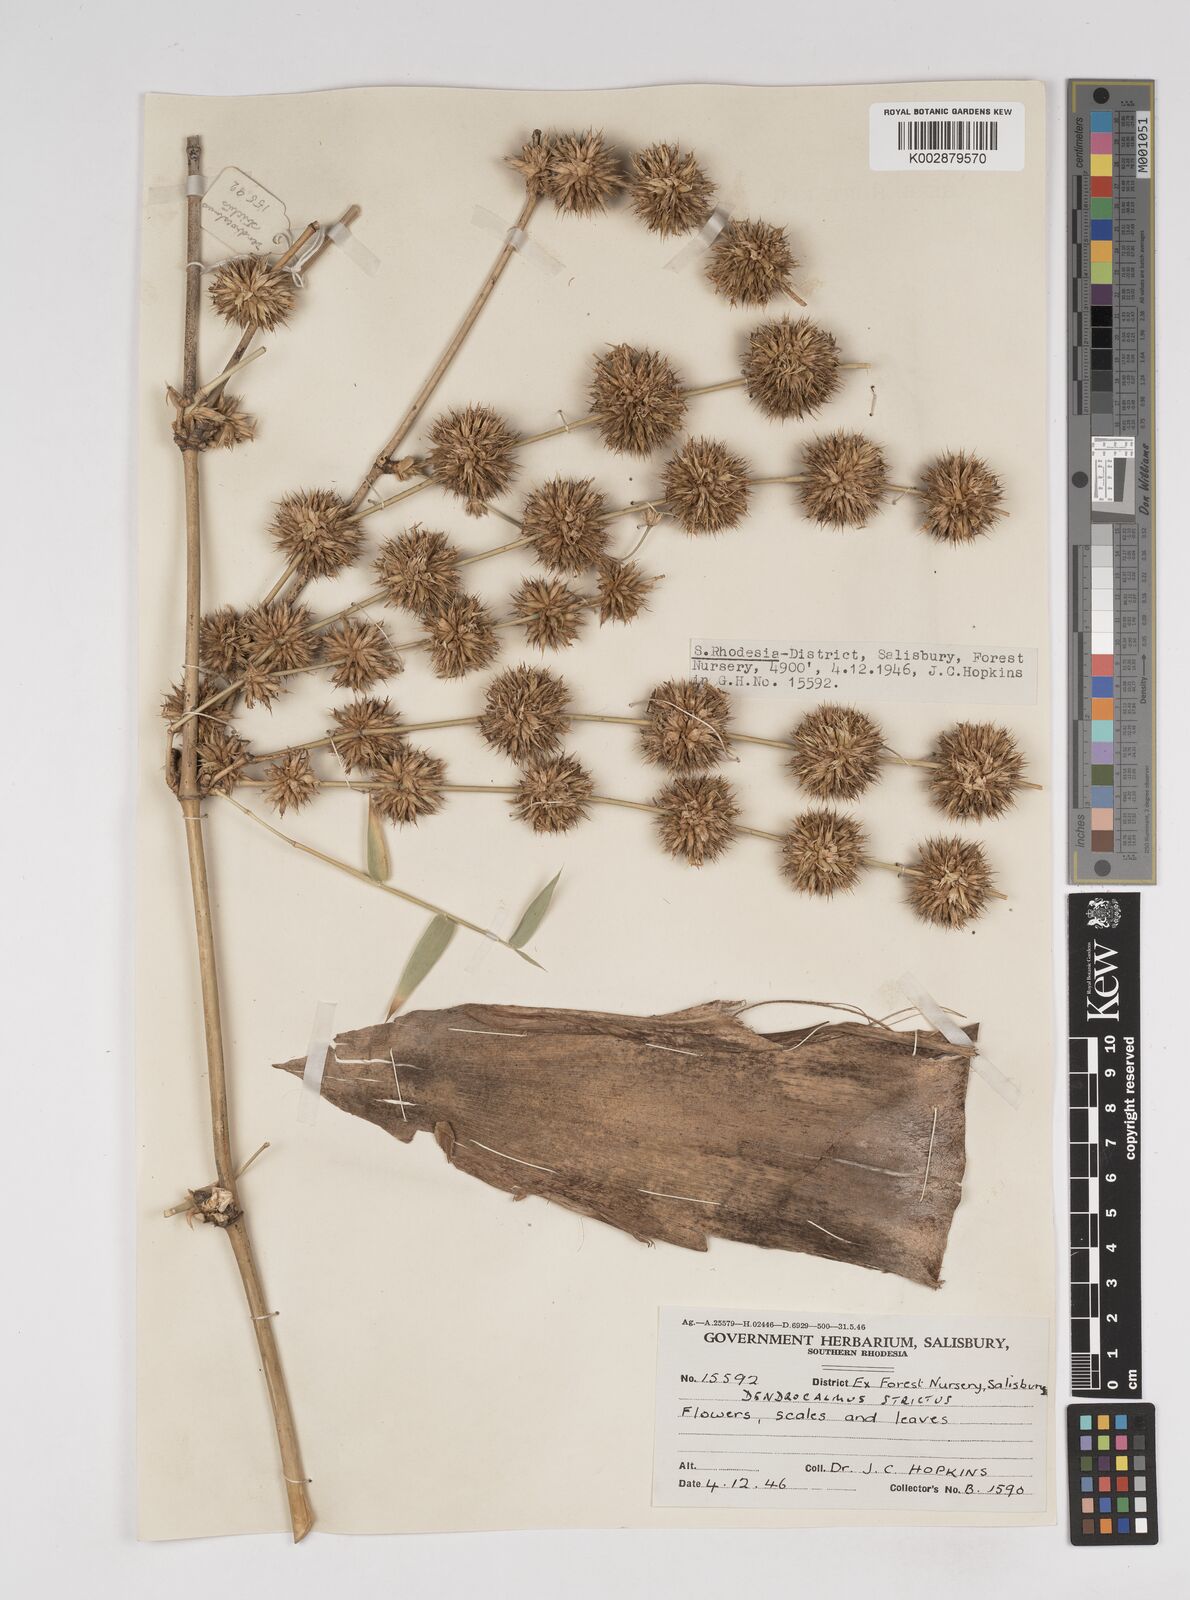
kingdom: Plantae
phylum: Tracheophyta
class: Liliopsida
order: Poales
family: Poaceae
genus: Dendrocalamus
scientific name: Dendrocalamus strictus
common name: Male bamboo
